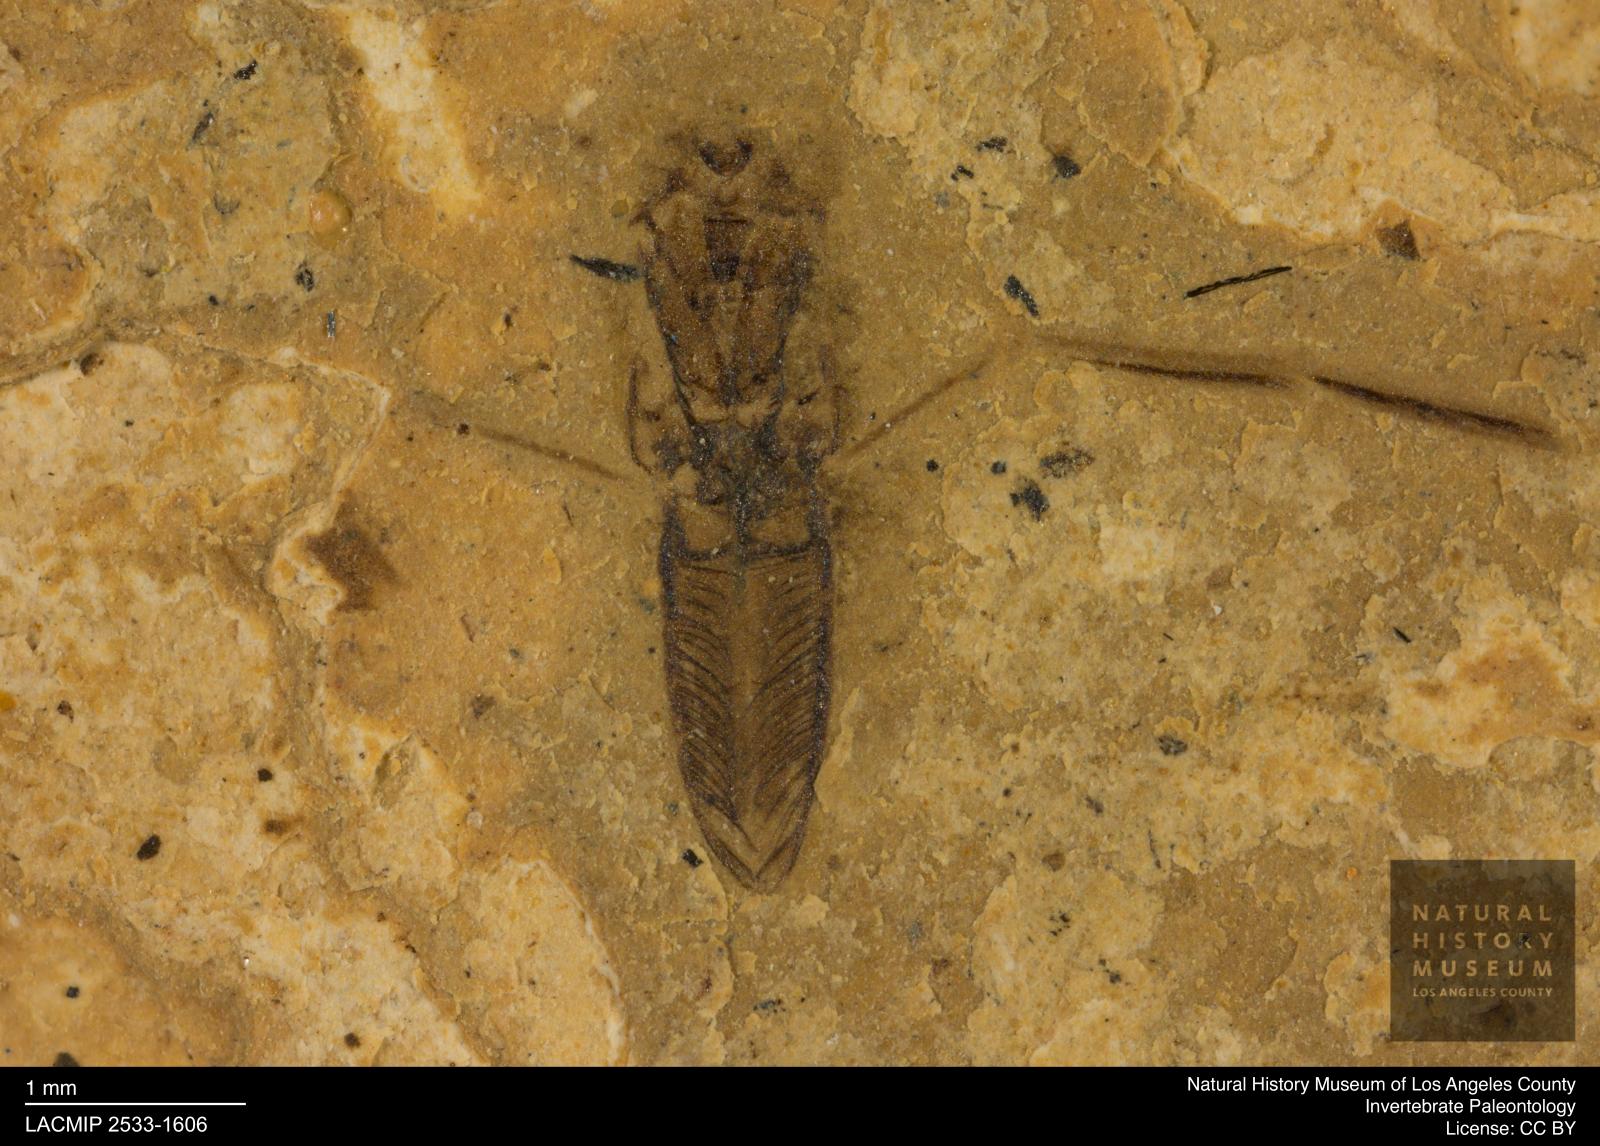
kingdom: Animalia
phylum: Arthropoda
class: Insecta
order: Hemiptera
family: Notonectidae
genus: Notonecta
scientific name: Notonecta
